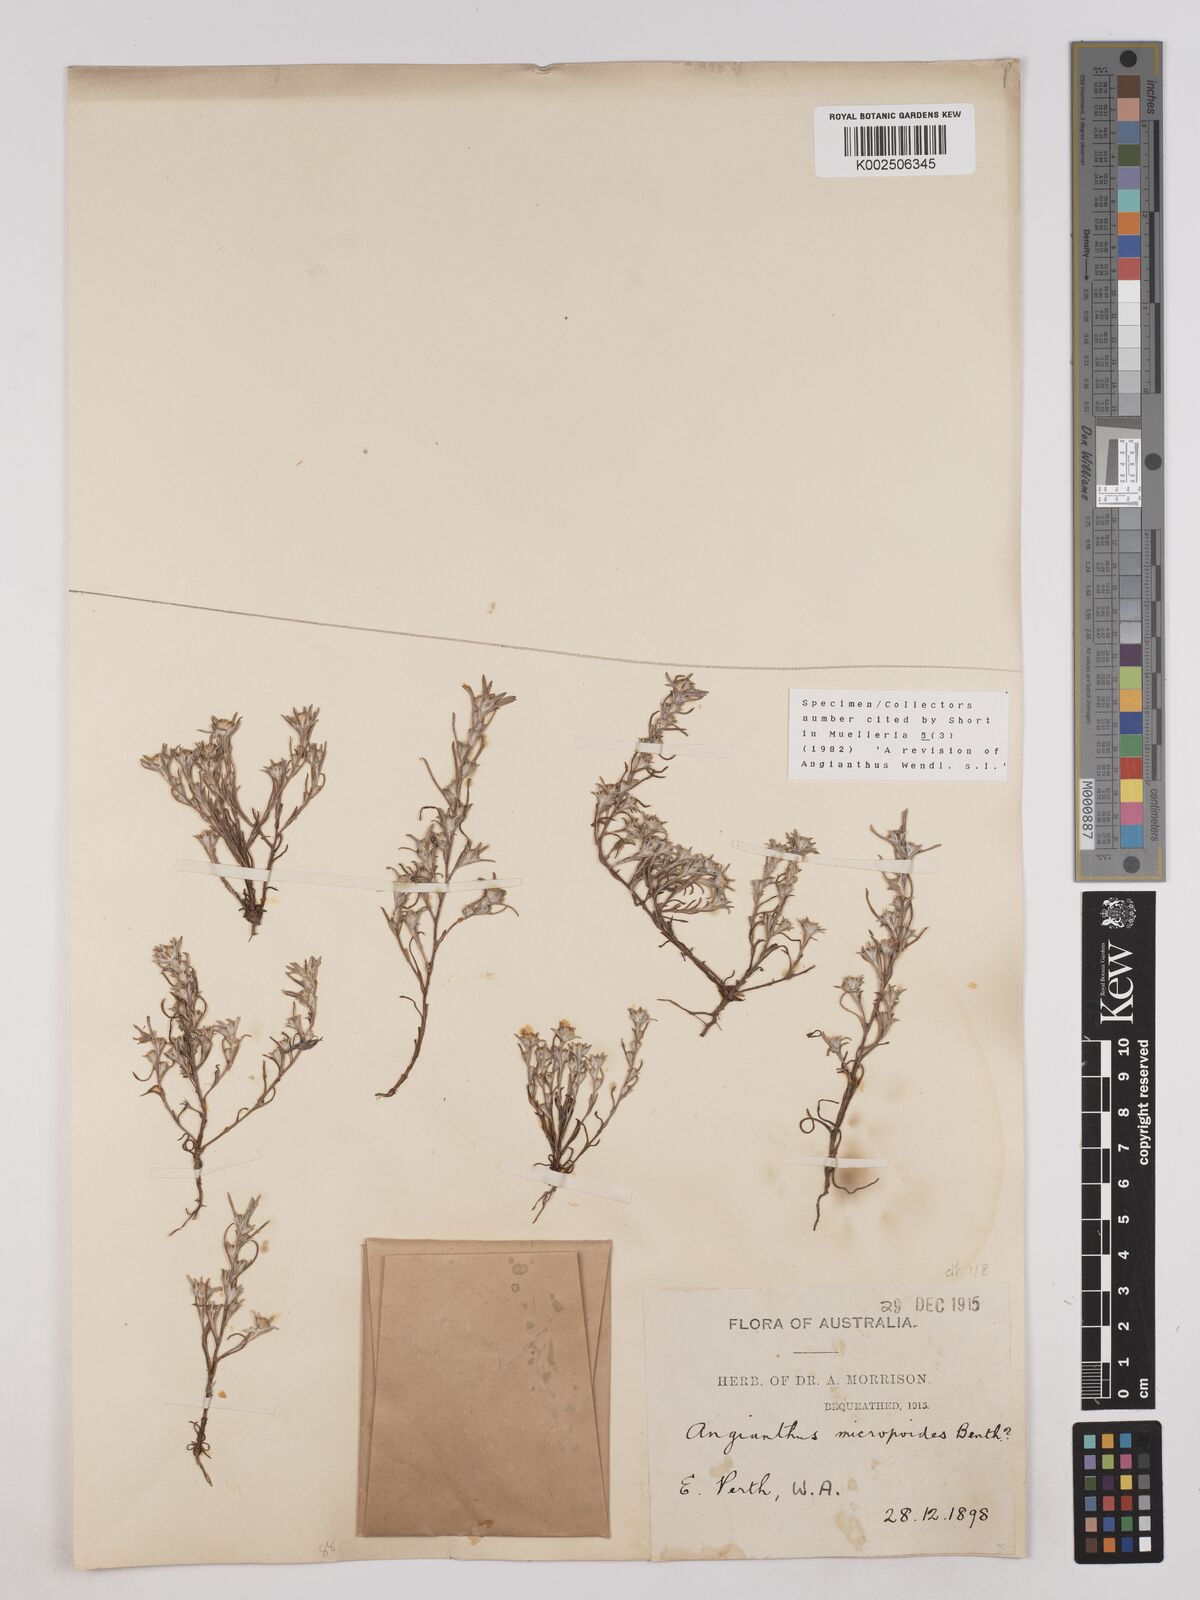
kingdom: Plantae
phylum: Tracheophyta
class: Magnoliopsida
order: Asterales
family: Asteraceae
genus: Angianthus
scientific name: Angianthus micropodioides
